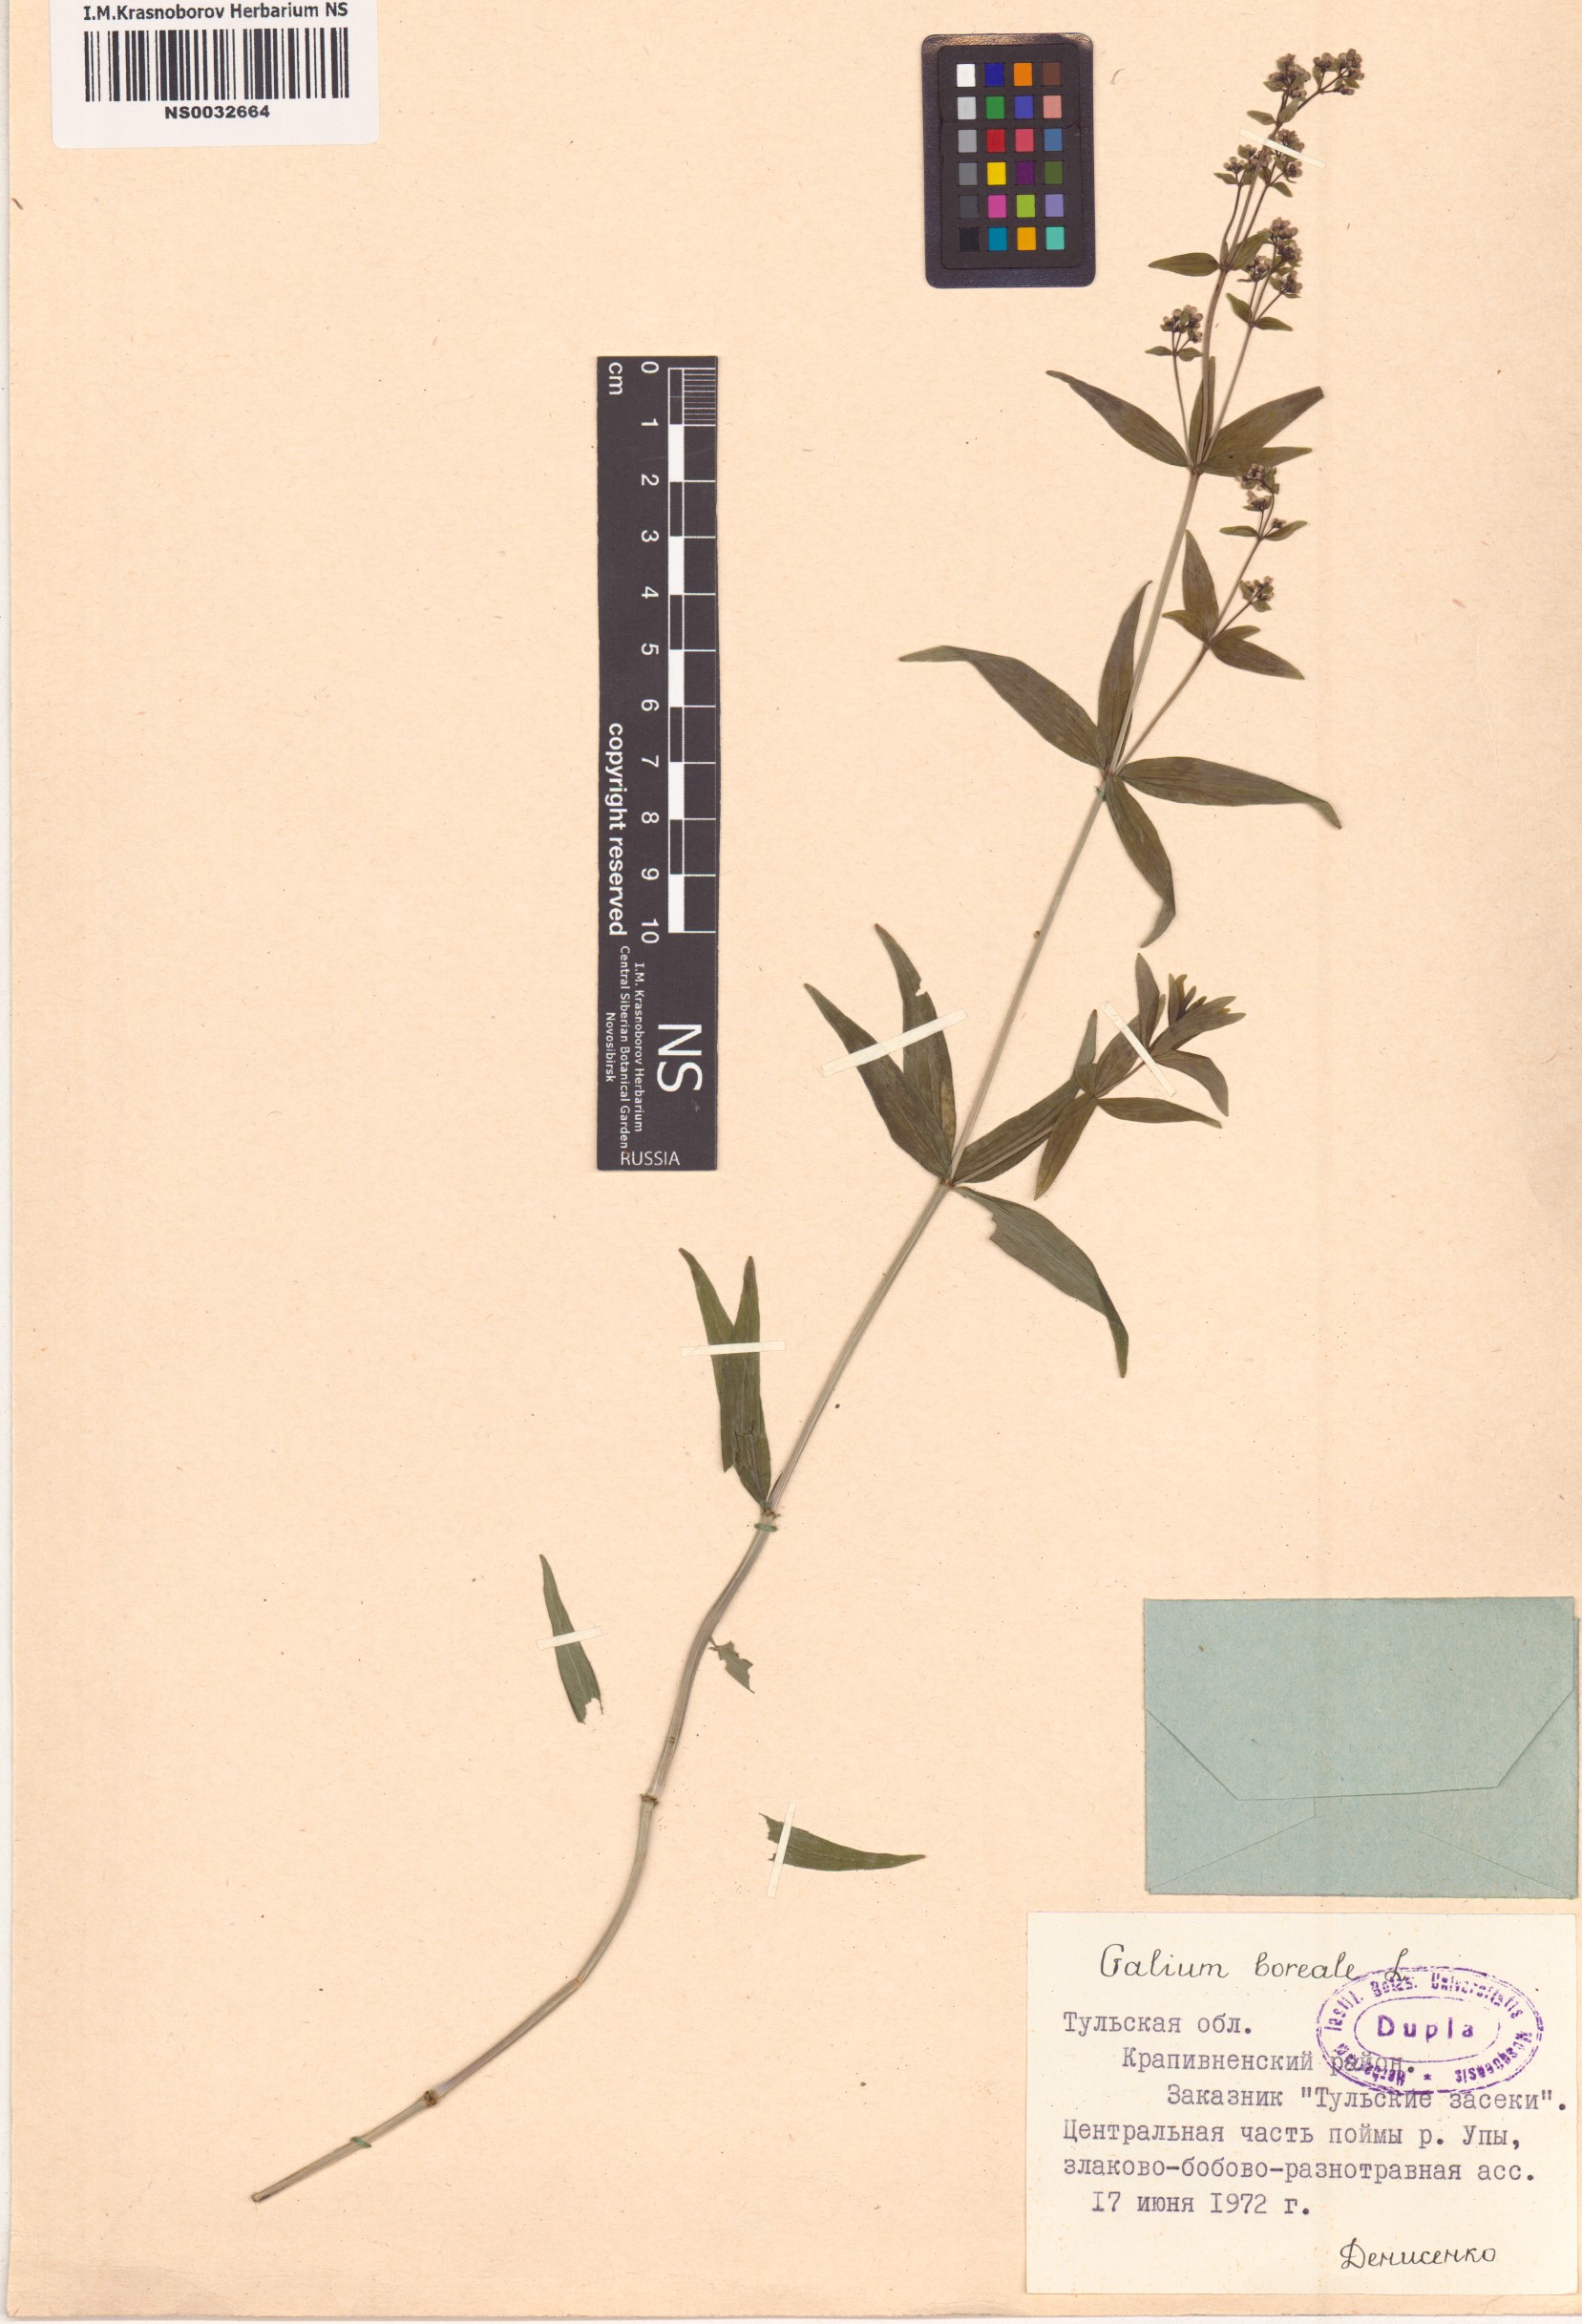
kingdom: Plantae
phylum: Tracheophyta
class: Magnoliopsida
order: Gentianales
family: Rubiaceae
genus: Galium
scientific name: Galium boreale
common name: Northern bedstraw
